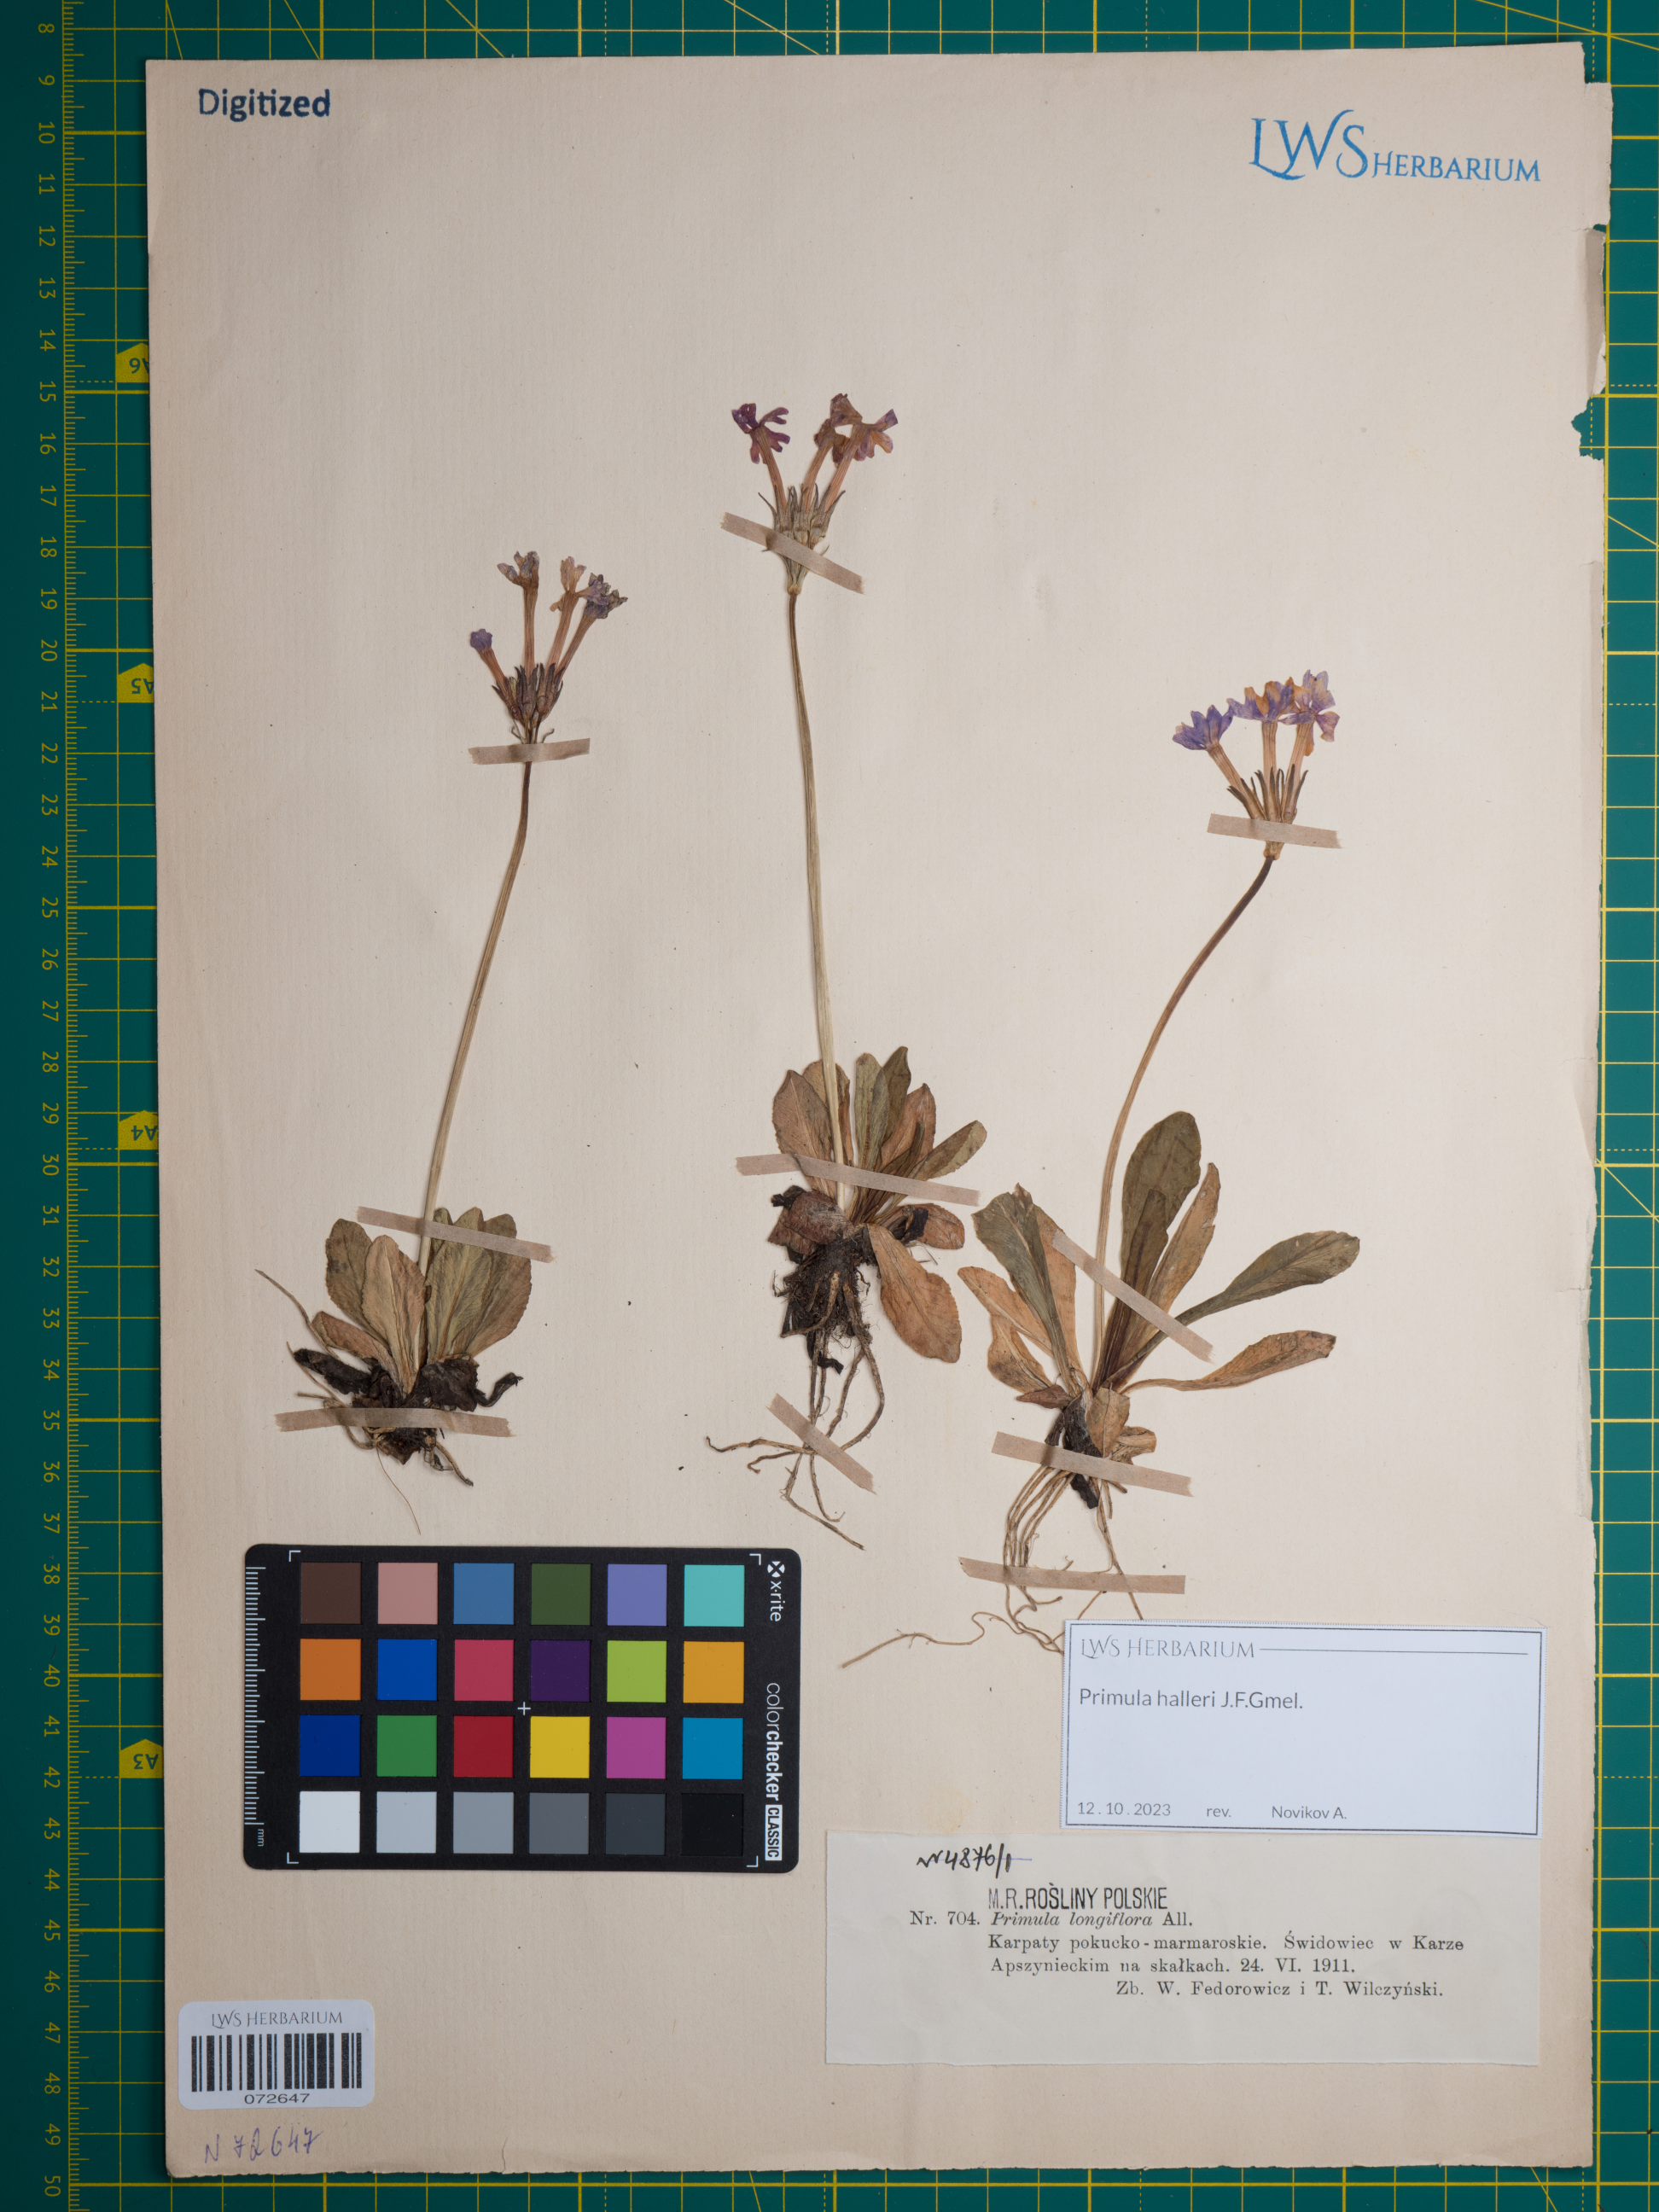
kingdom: Plantae
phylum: Tracheophyta
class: Magnoliopsida
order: Ericales
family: Primulaceae
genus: Primula
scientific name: Primula halleri
